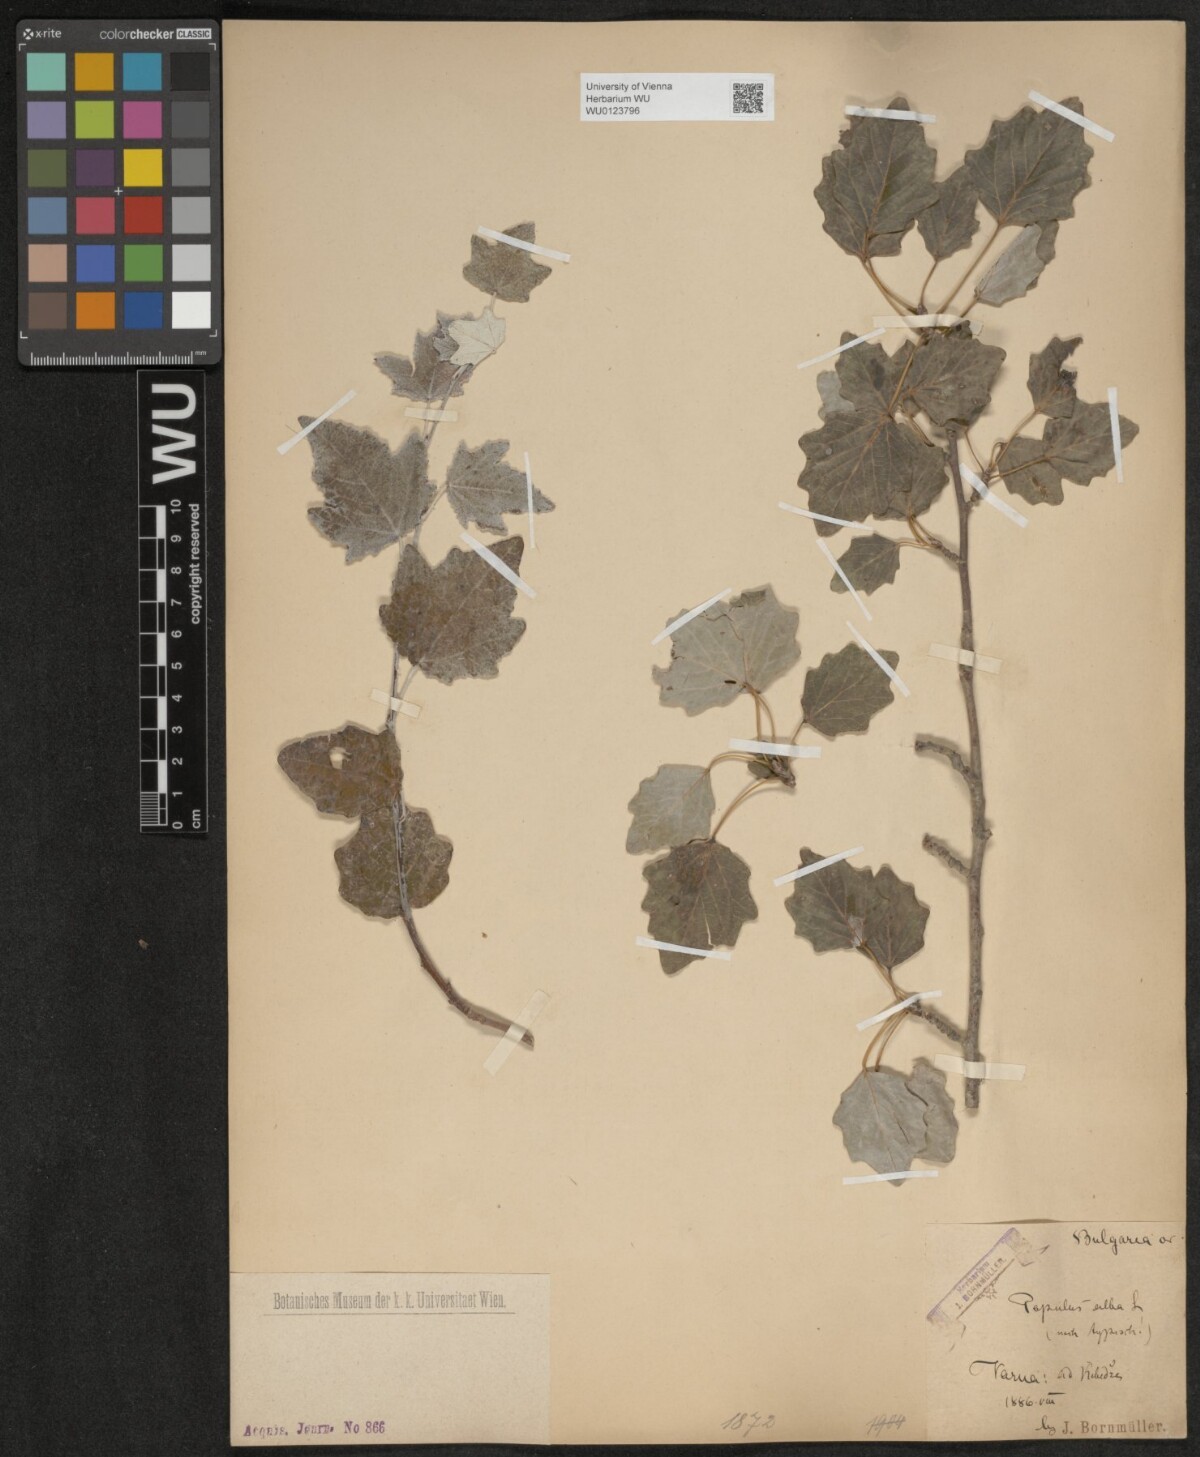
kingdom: Plantae
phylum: Tracheophyta
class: Magnoliopsida
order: Malpighiales
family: Salicaceae
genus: Populus
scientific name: Populus alba
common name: White poplar
